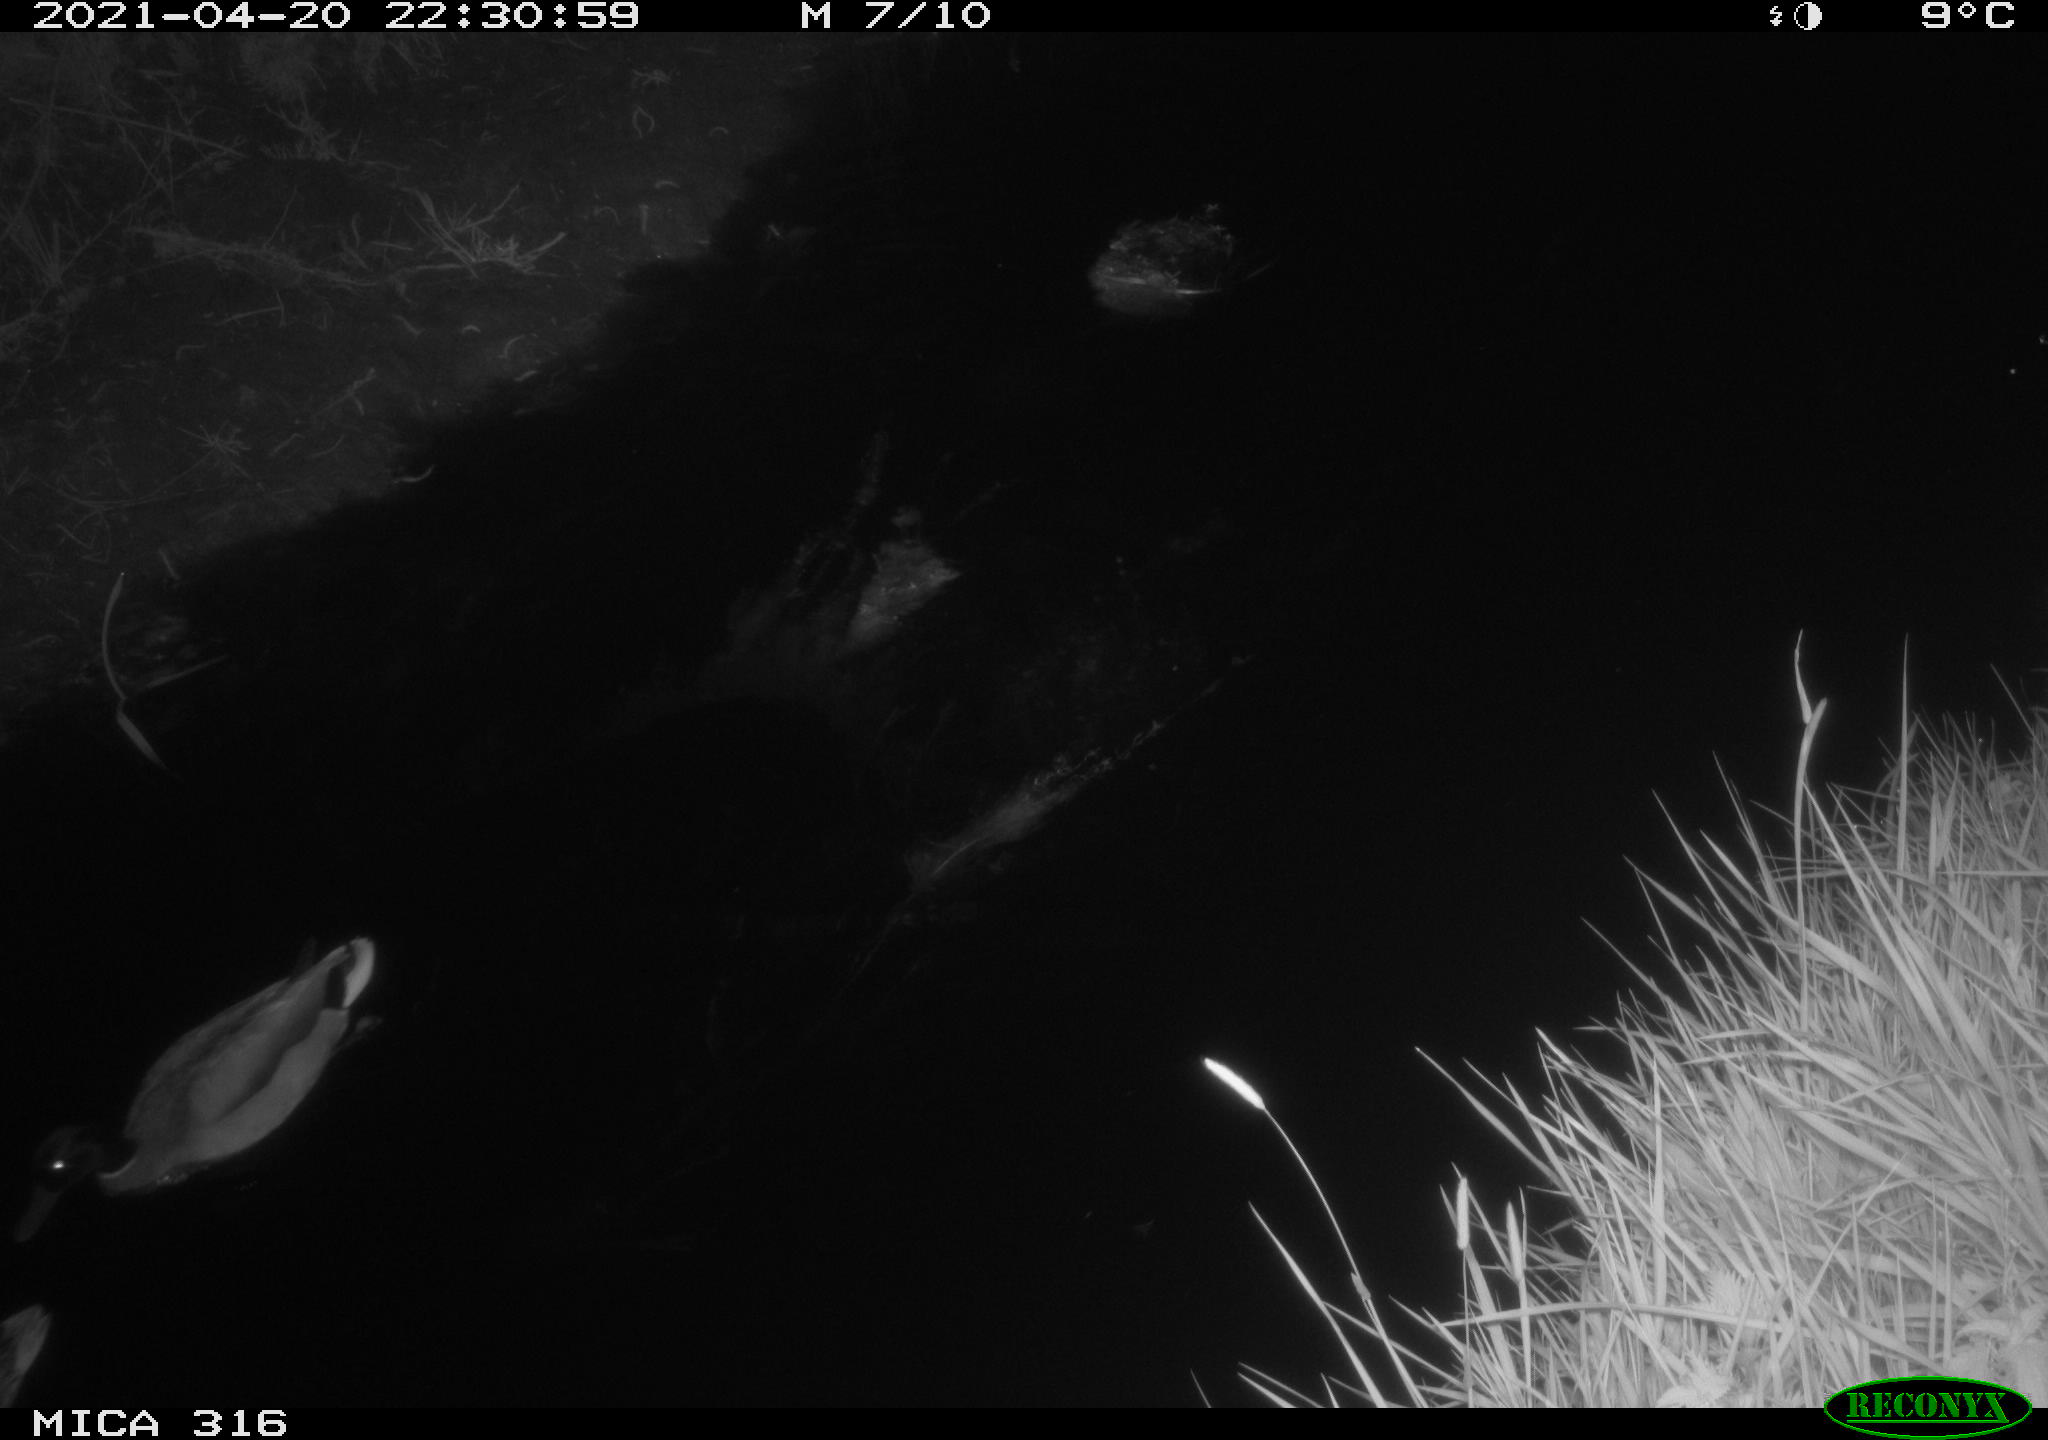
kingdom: Animalia
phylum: Chordata
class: Aves
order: Anseriformes
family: Anatidae
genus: Anas
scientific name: Anas platyrhynchos
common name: Mallard
